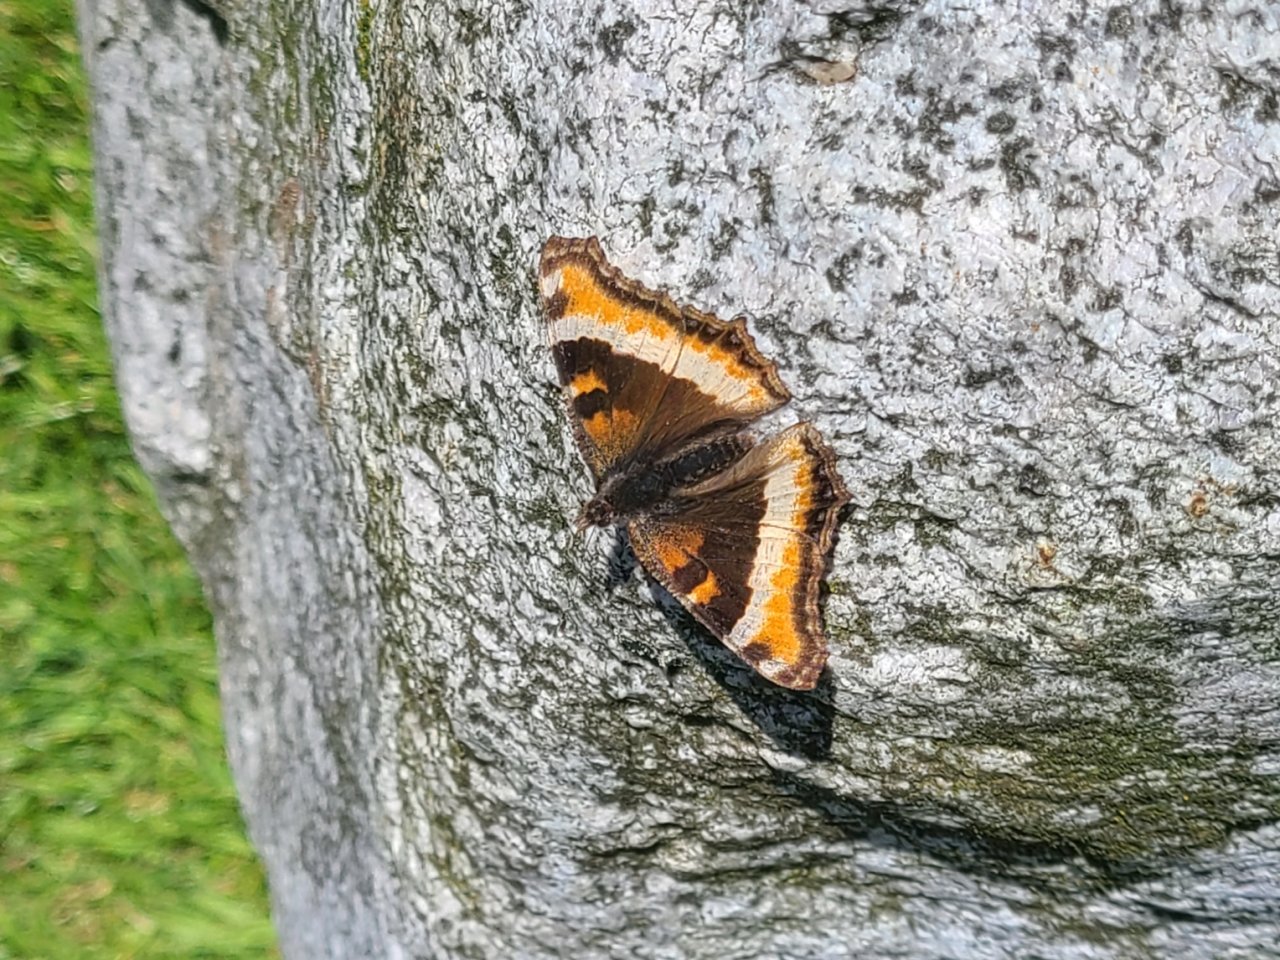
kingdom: Animalia
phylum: Arthropoda
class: Insecta
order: Lepidoptera
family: Nymphalidae
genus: Aglais
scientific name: Aglais milberti
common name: Milbert's Tortoiseshell
